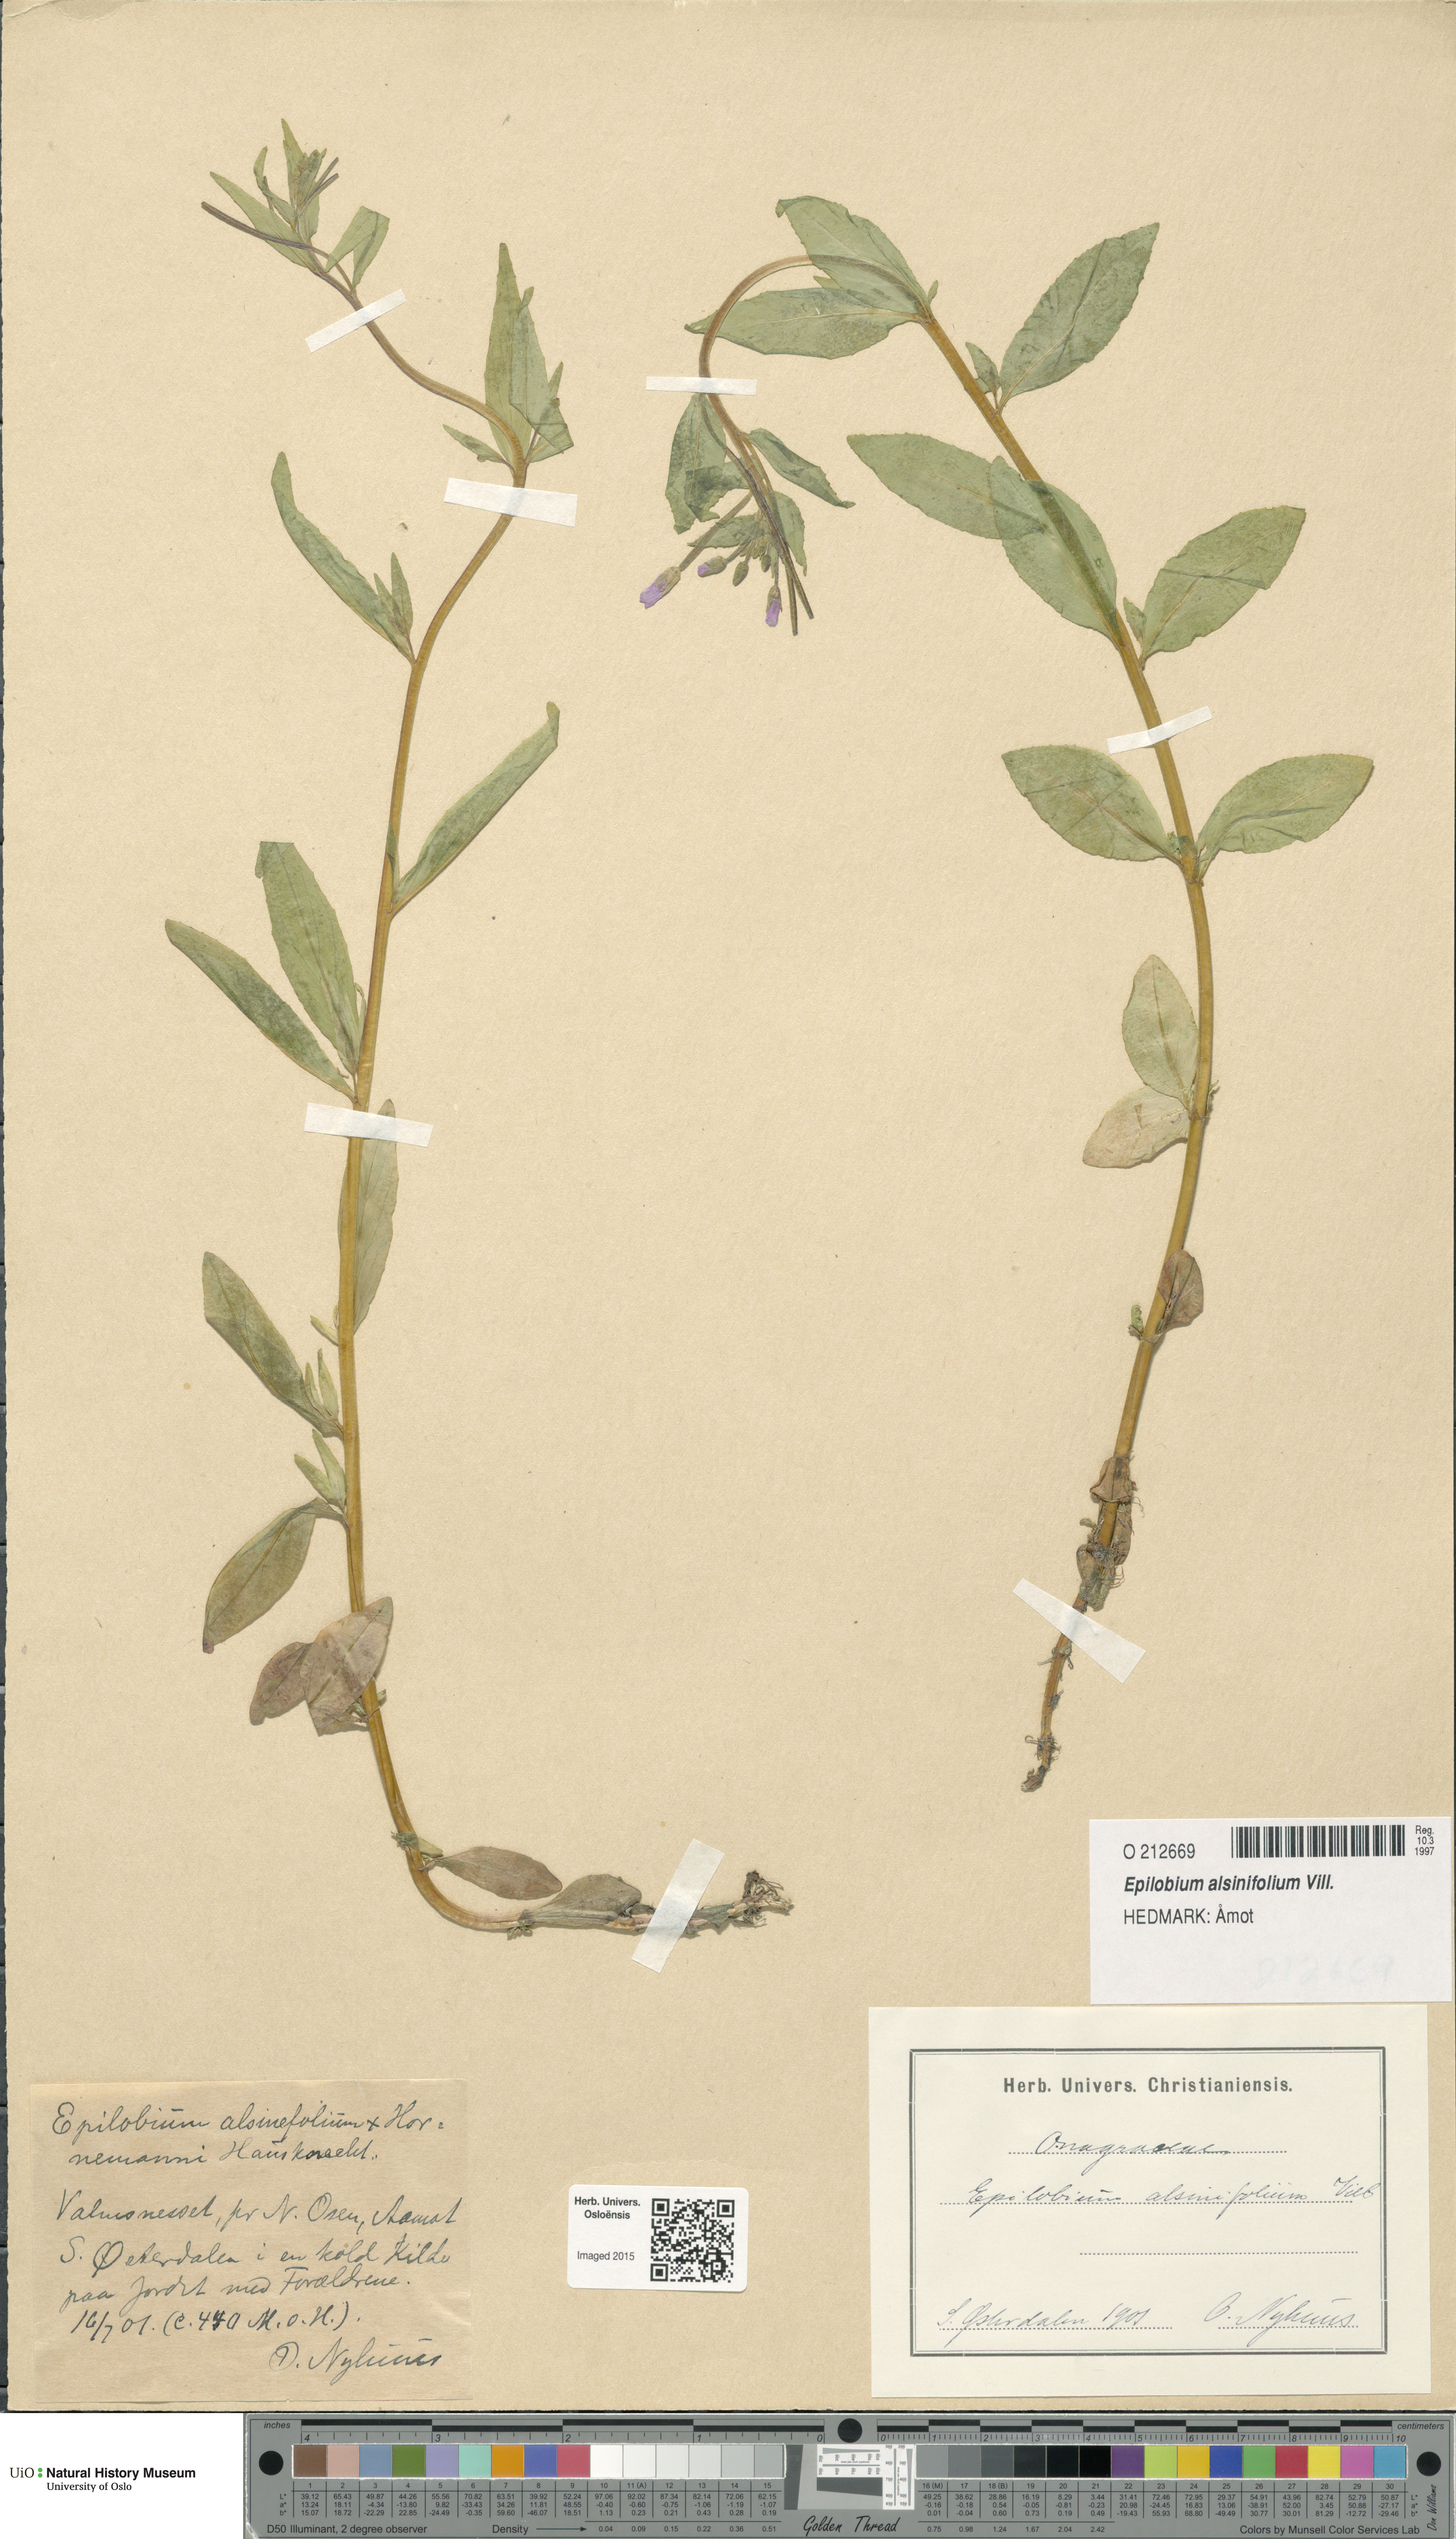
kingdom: Plantae
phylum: Tracheophyta
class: Magnoliopsida
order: Myrtales
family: Onagraceae
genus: Epilobium
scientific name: Epilobium alsinifolium
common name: Chickweed willowherb
